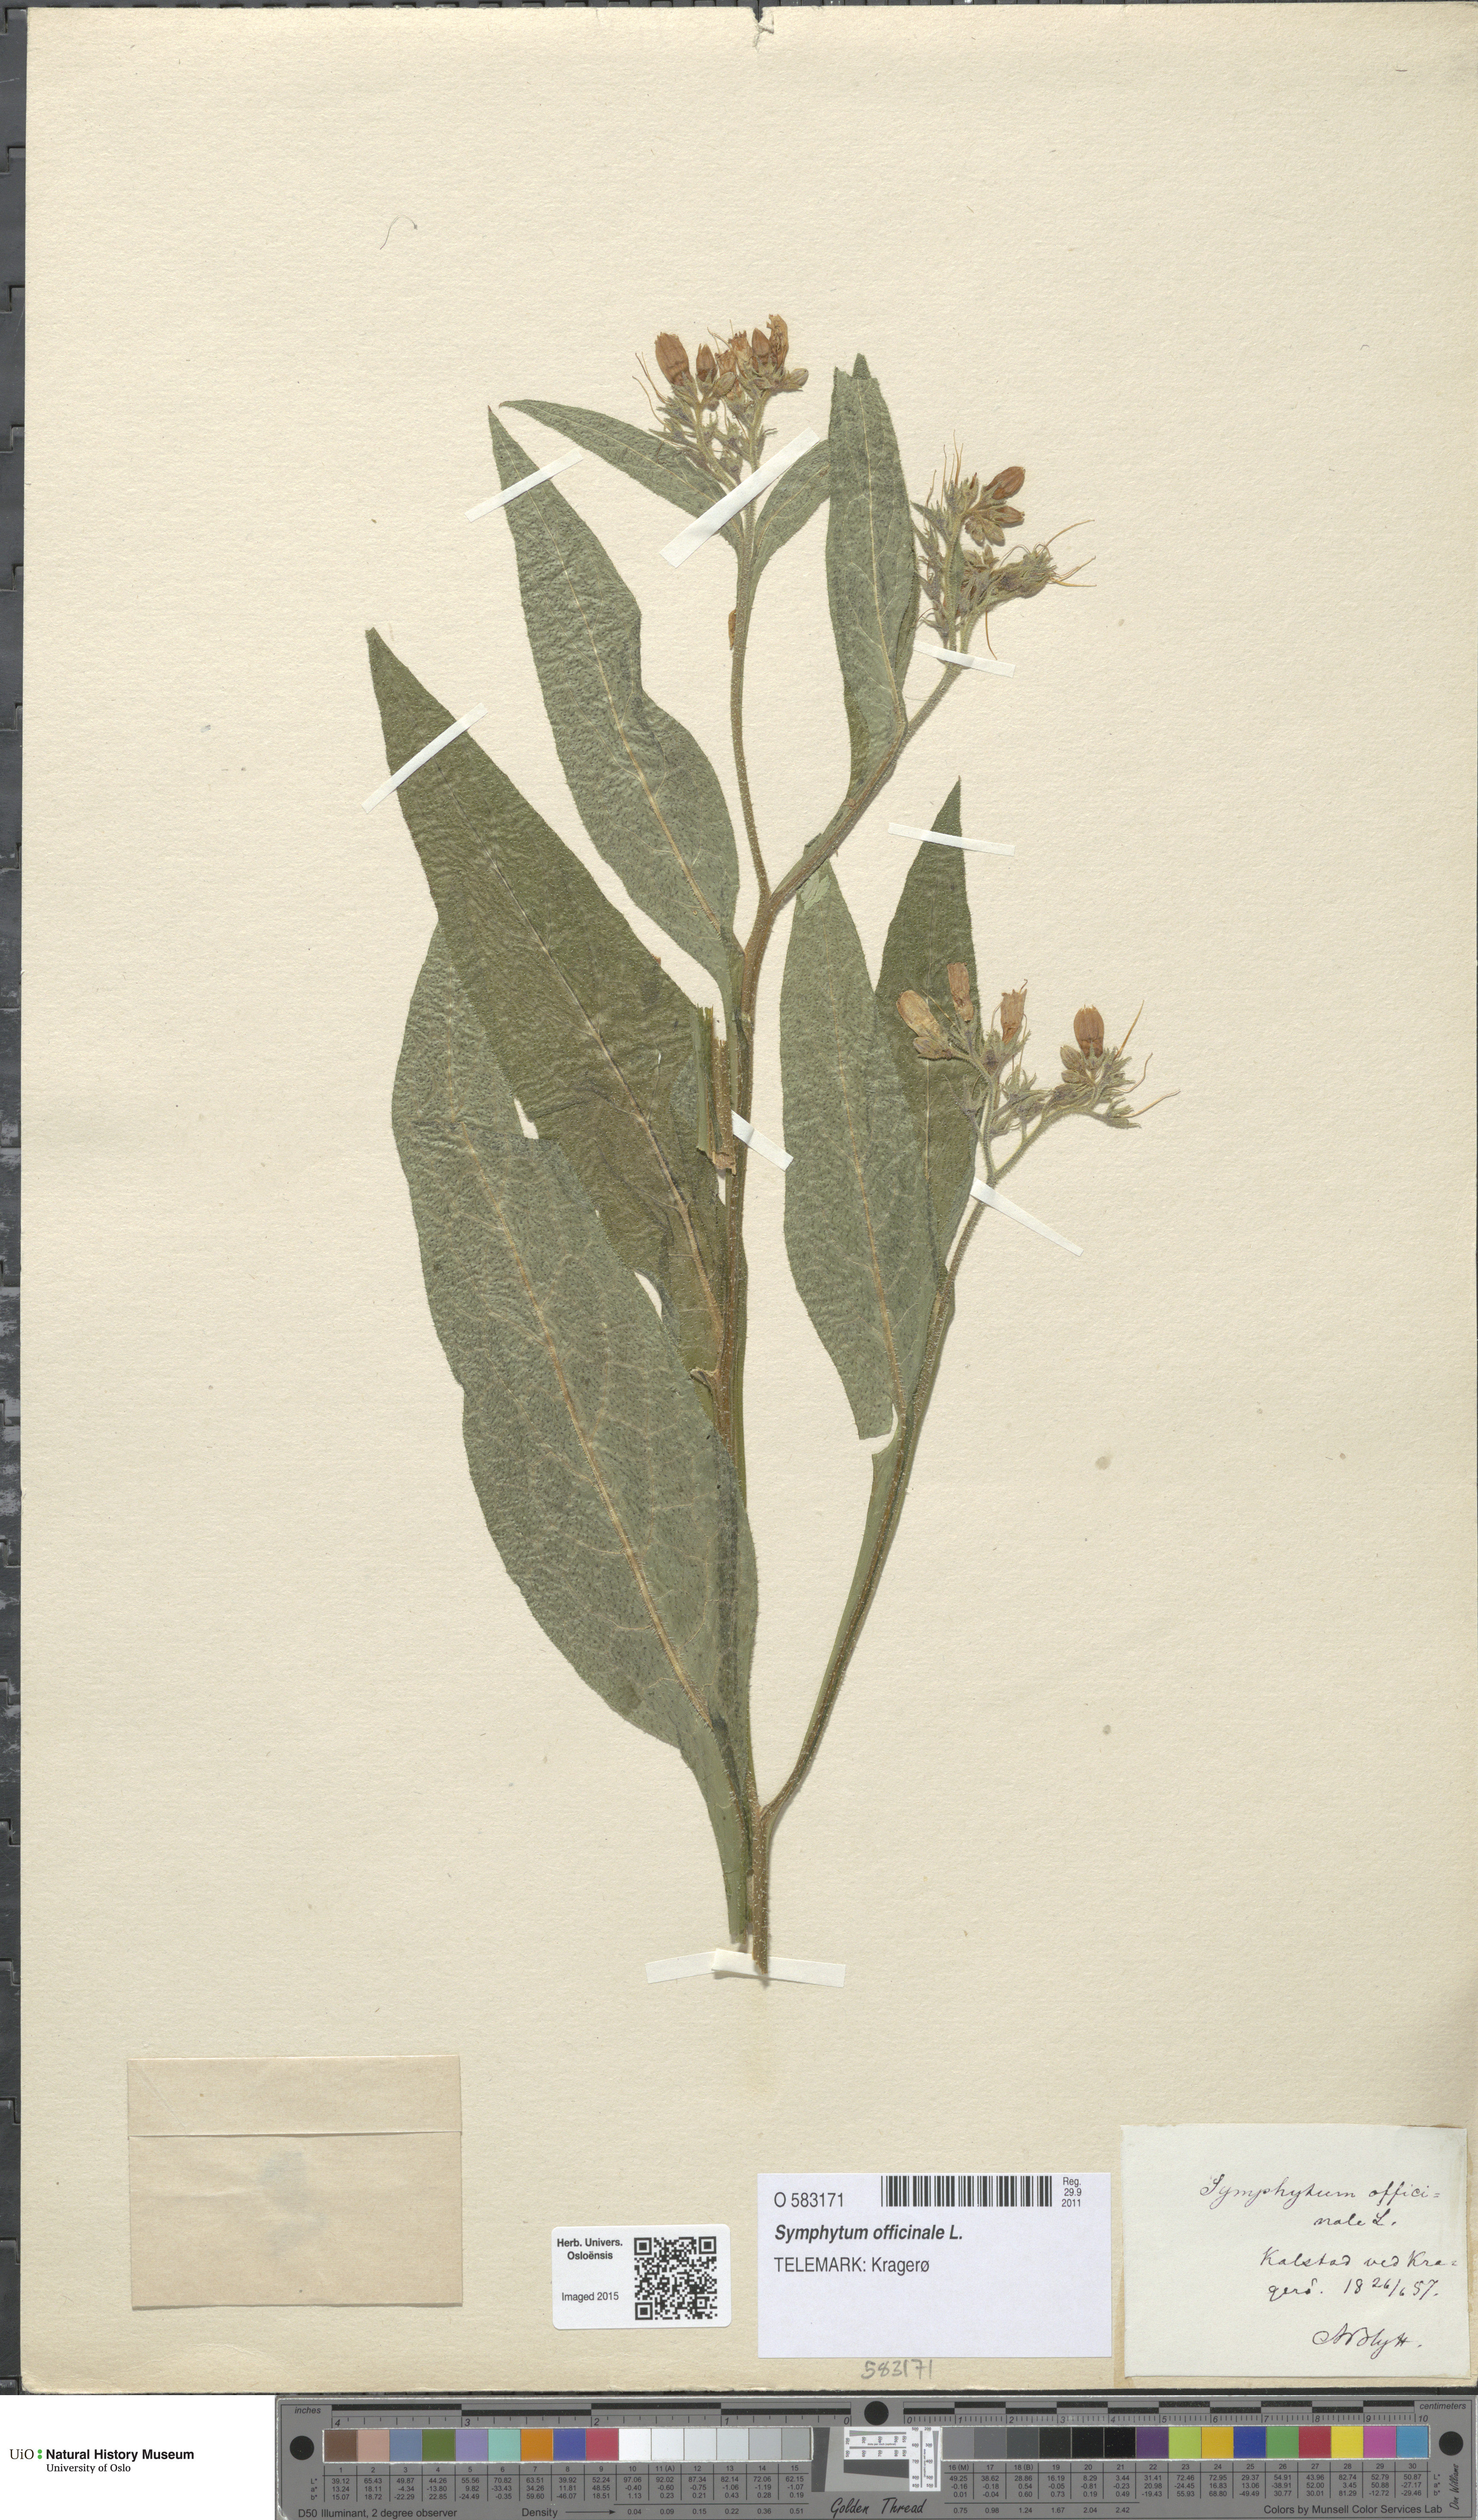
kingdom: Plantae
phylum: Tracheophyta
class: Magnoliopsida
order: Boraginales
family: Boraginaceae
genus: Symphytum
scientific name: Symphytum officinale
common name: Common comfrey
